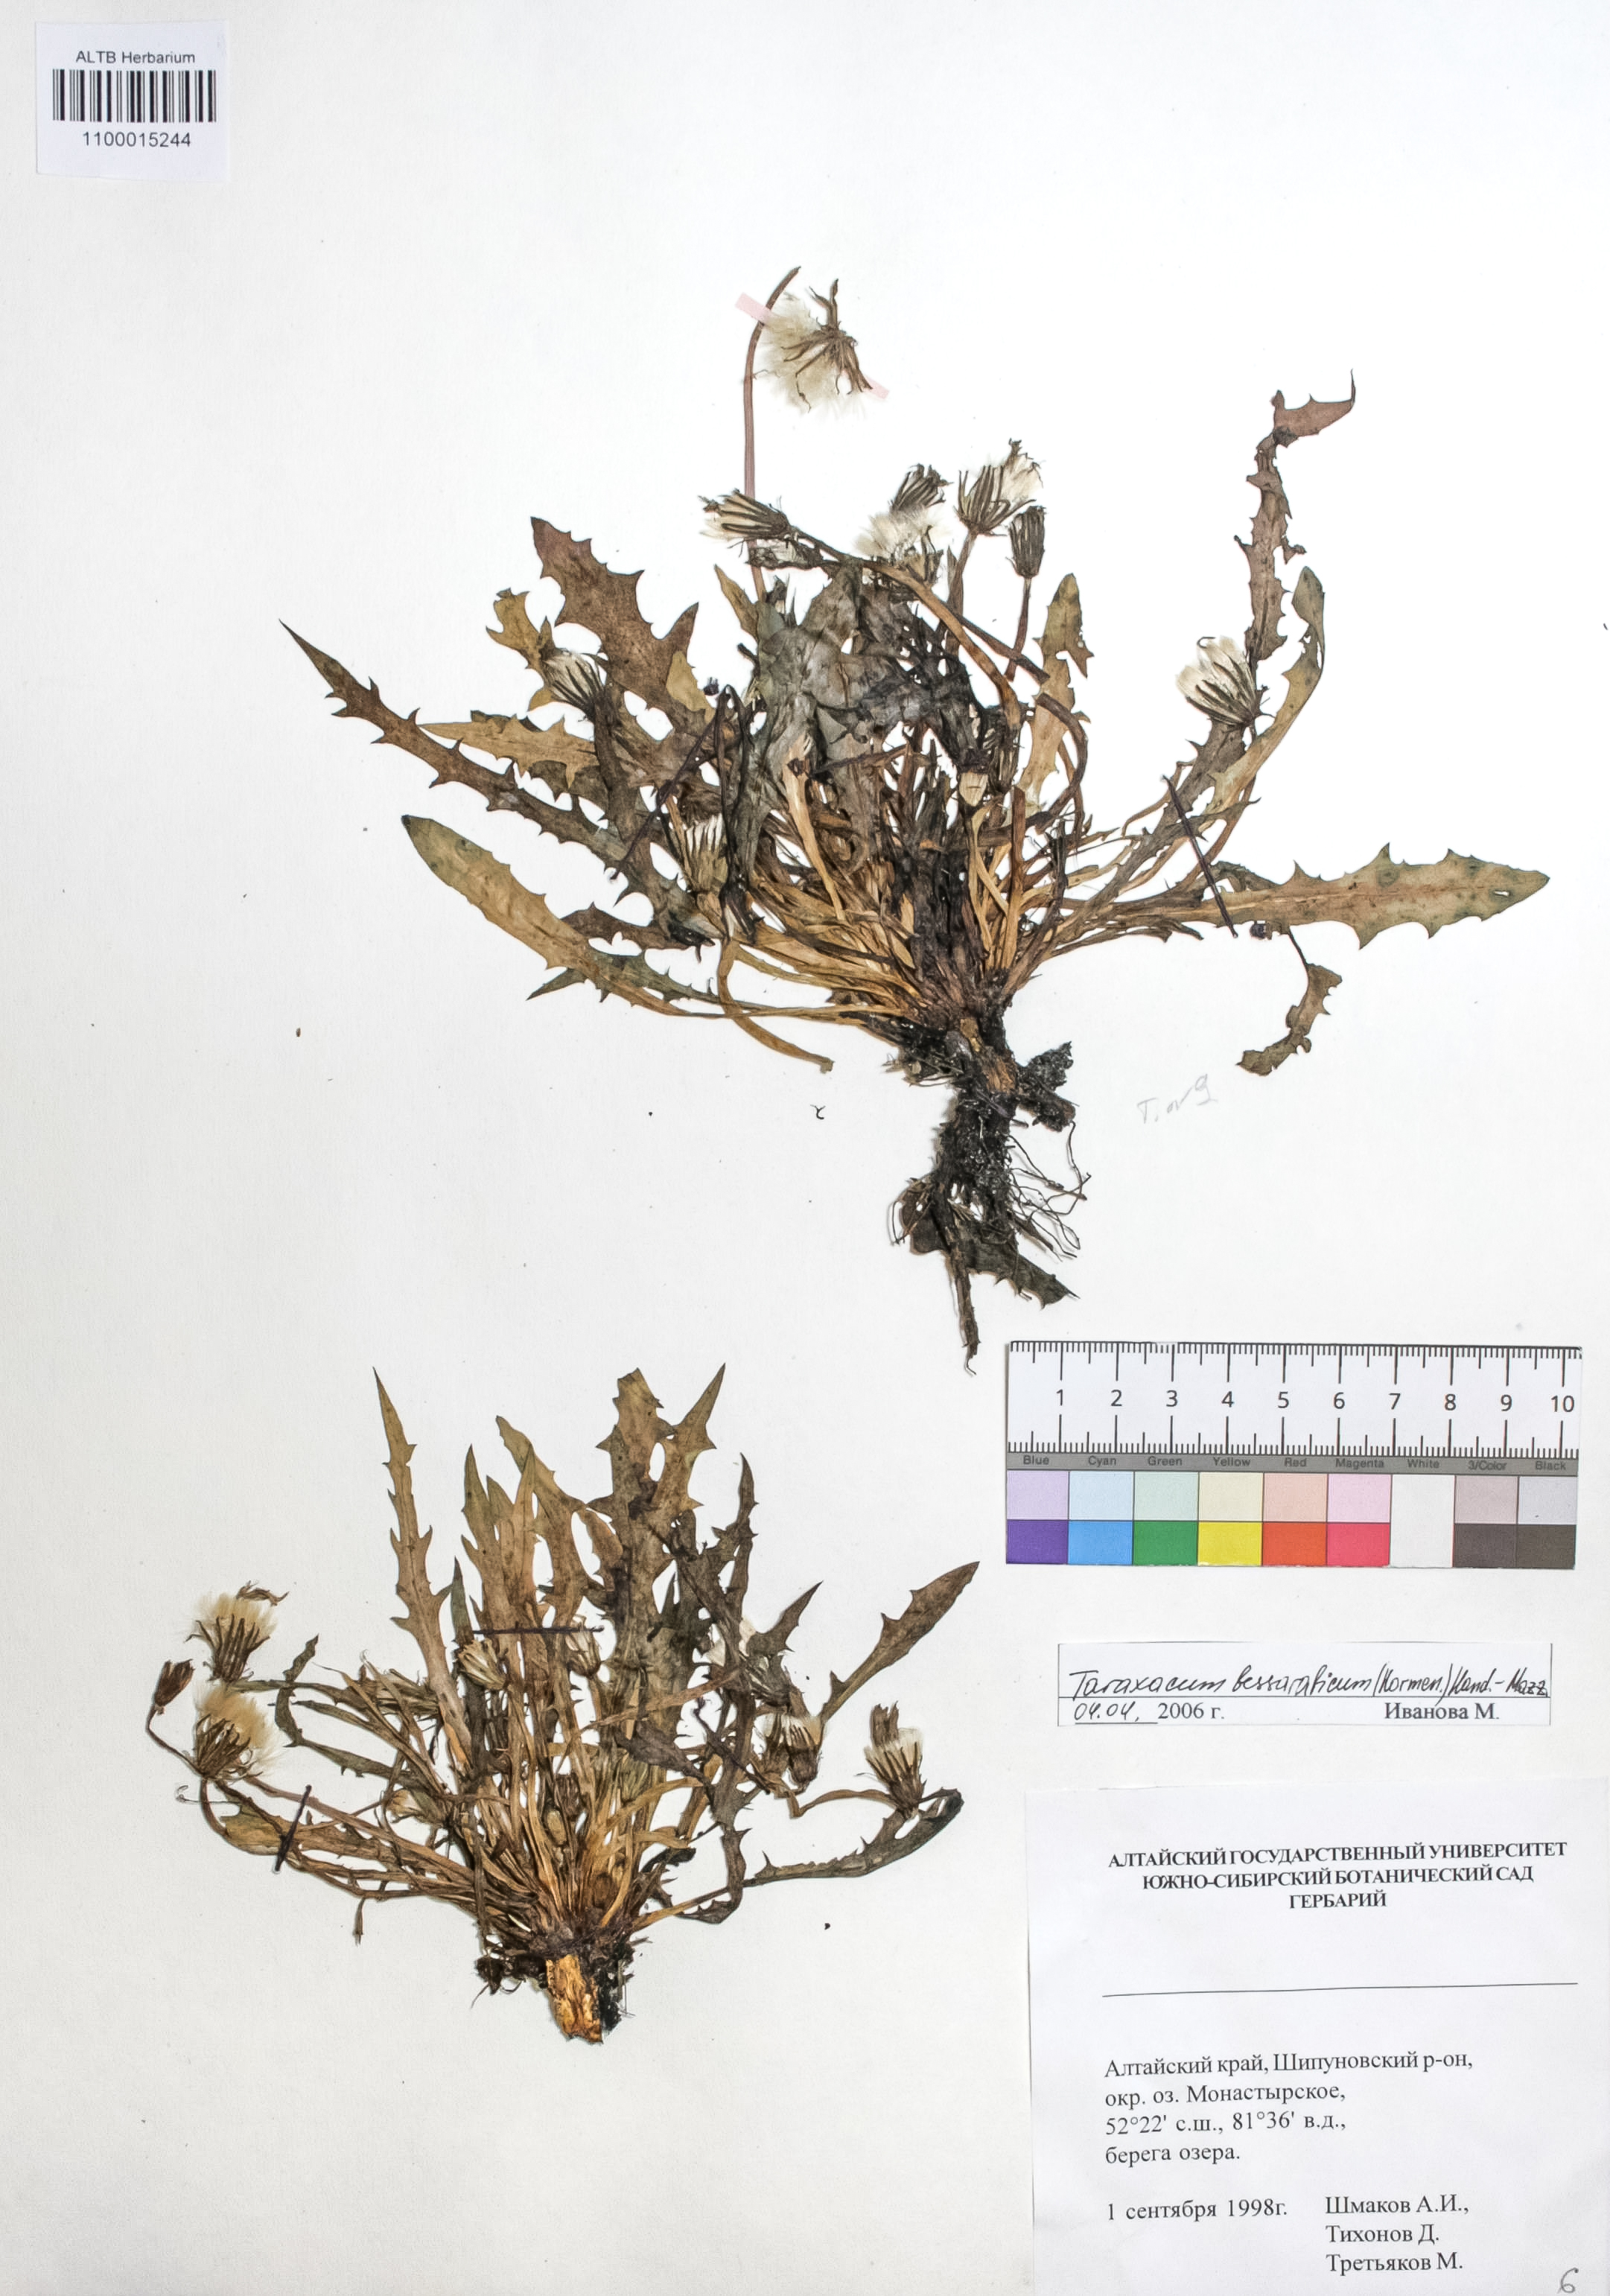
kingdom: Plantae
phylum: Tracheophyta
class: Magnoliopsida
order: Asterales
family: Asteraceae
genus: Taraxacum
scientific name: Taraxacum bessarabicum
